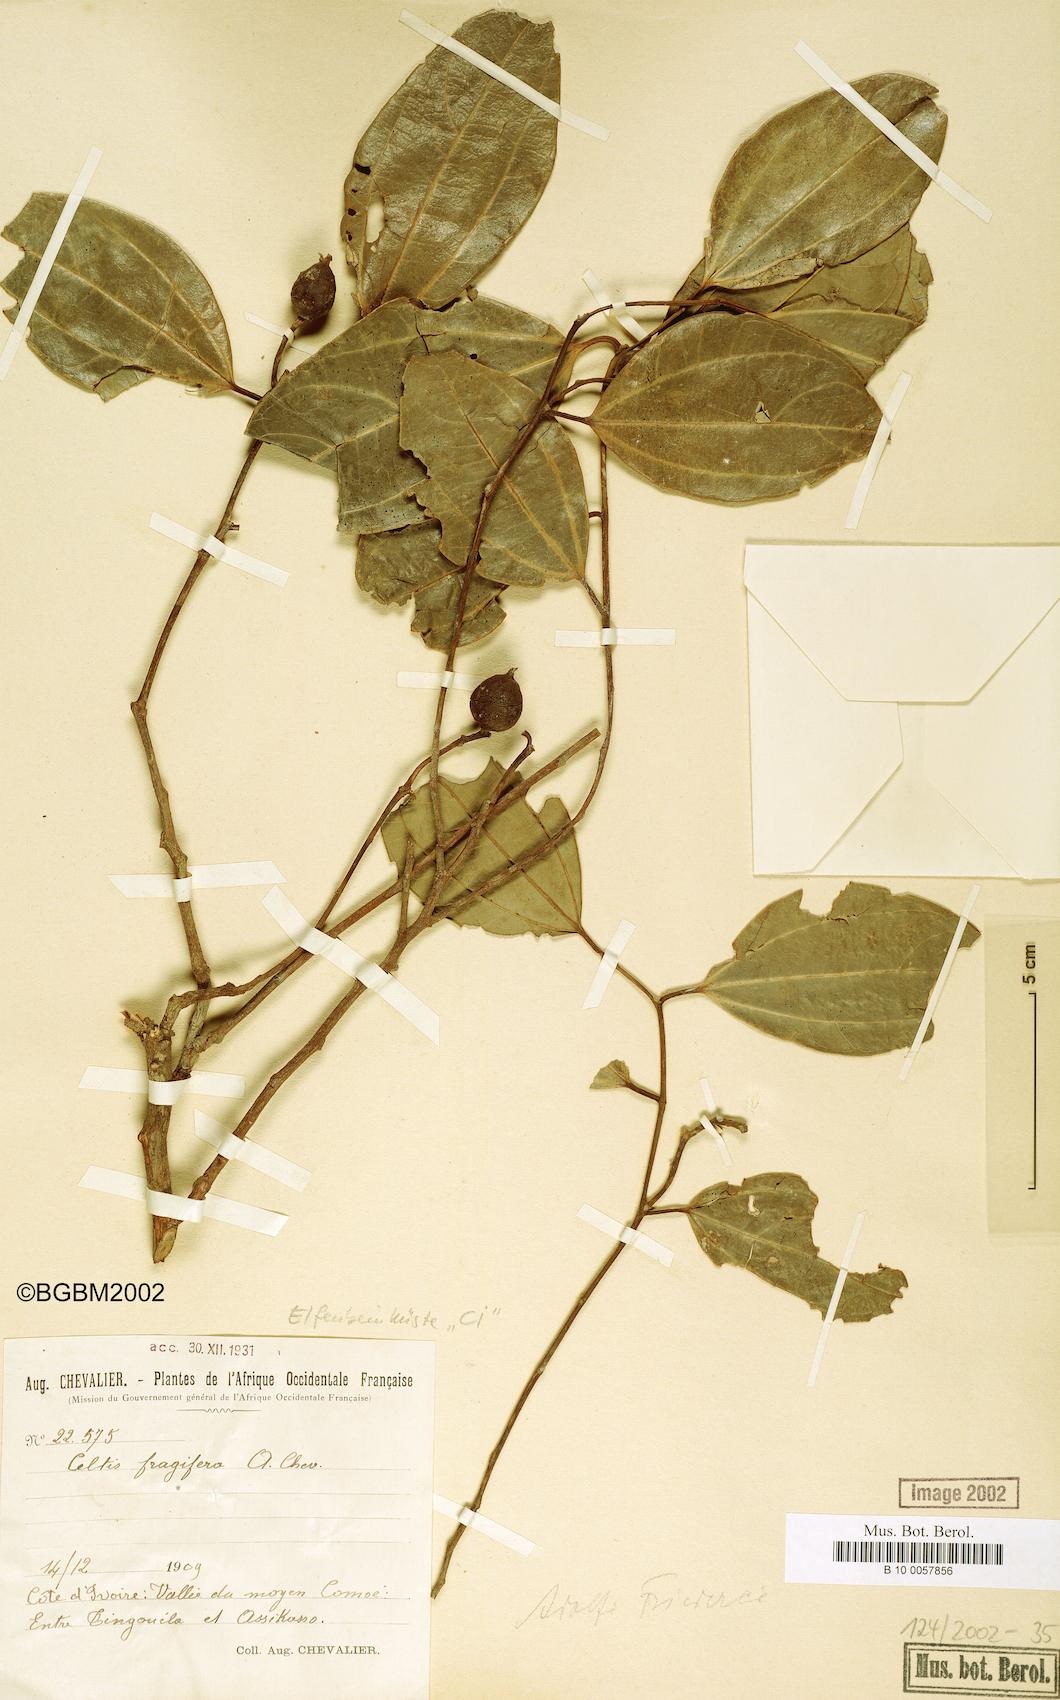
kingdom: Plantae
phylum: Tracheophyta
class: Magnoliopsida
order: Rosales
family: Cannabaceae
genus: Celtis
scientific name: Celtis adolfi-friderici
